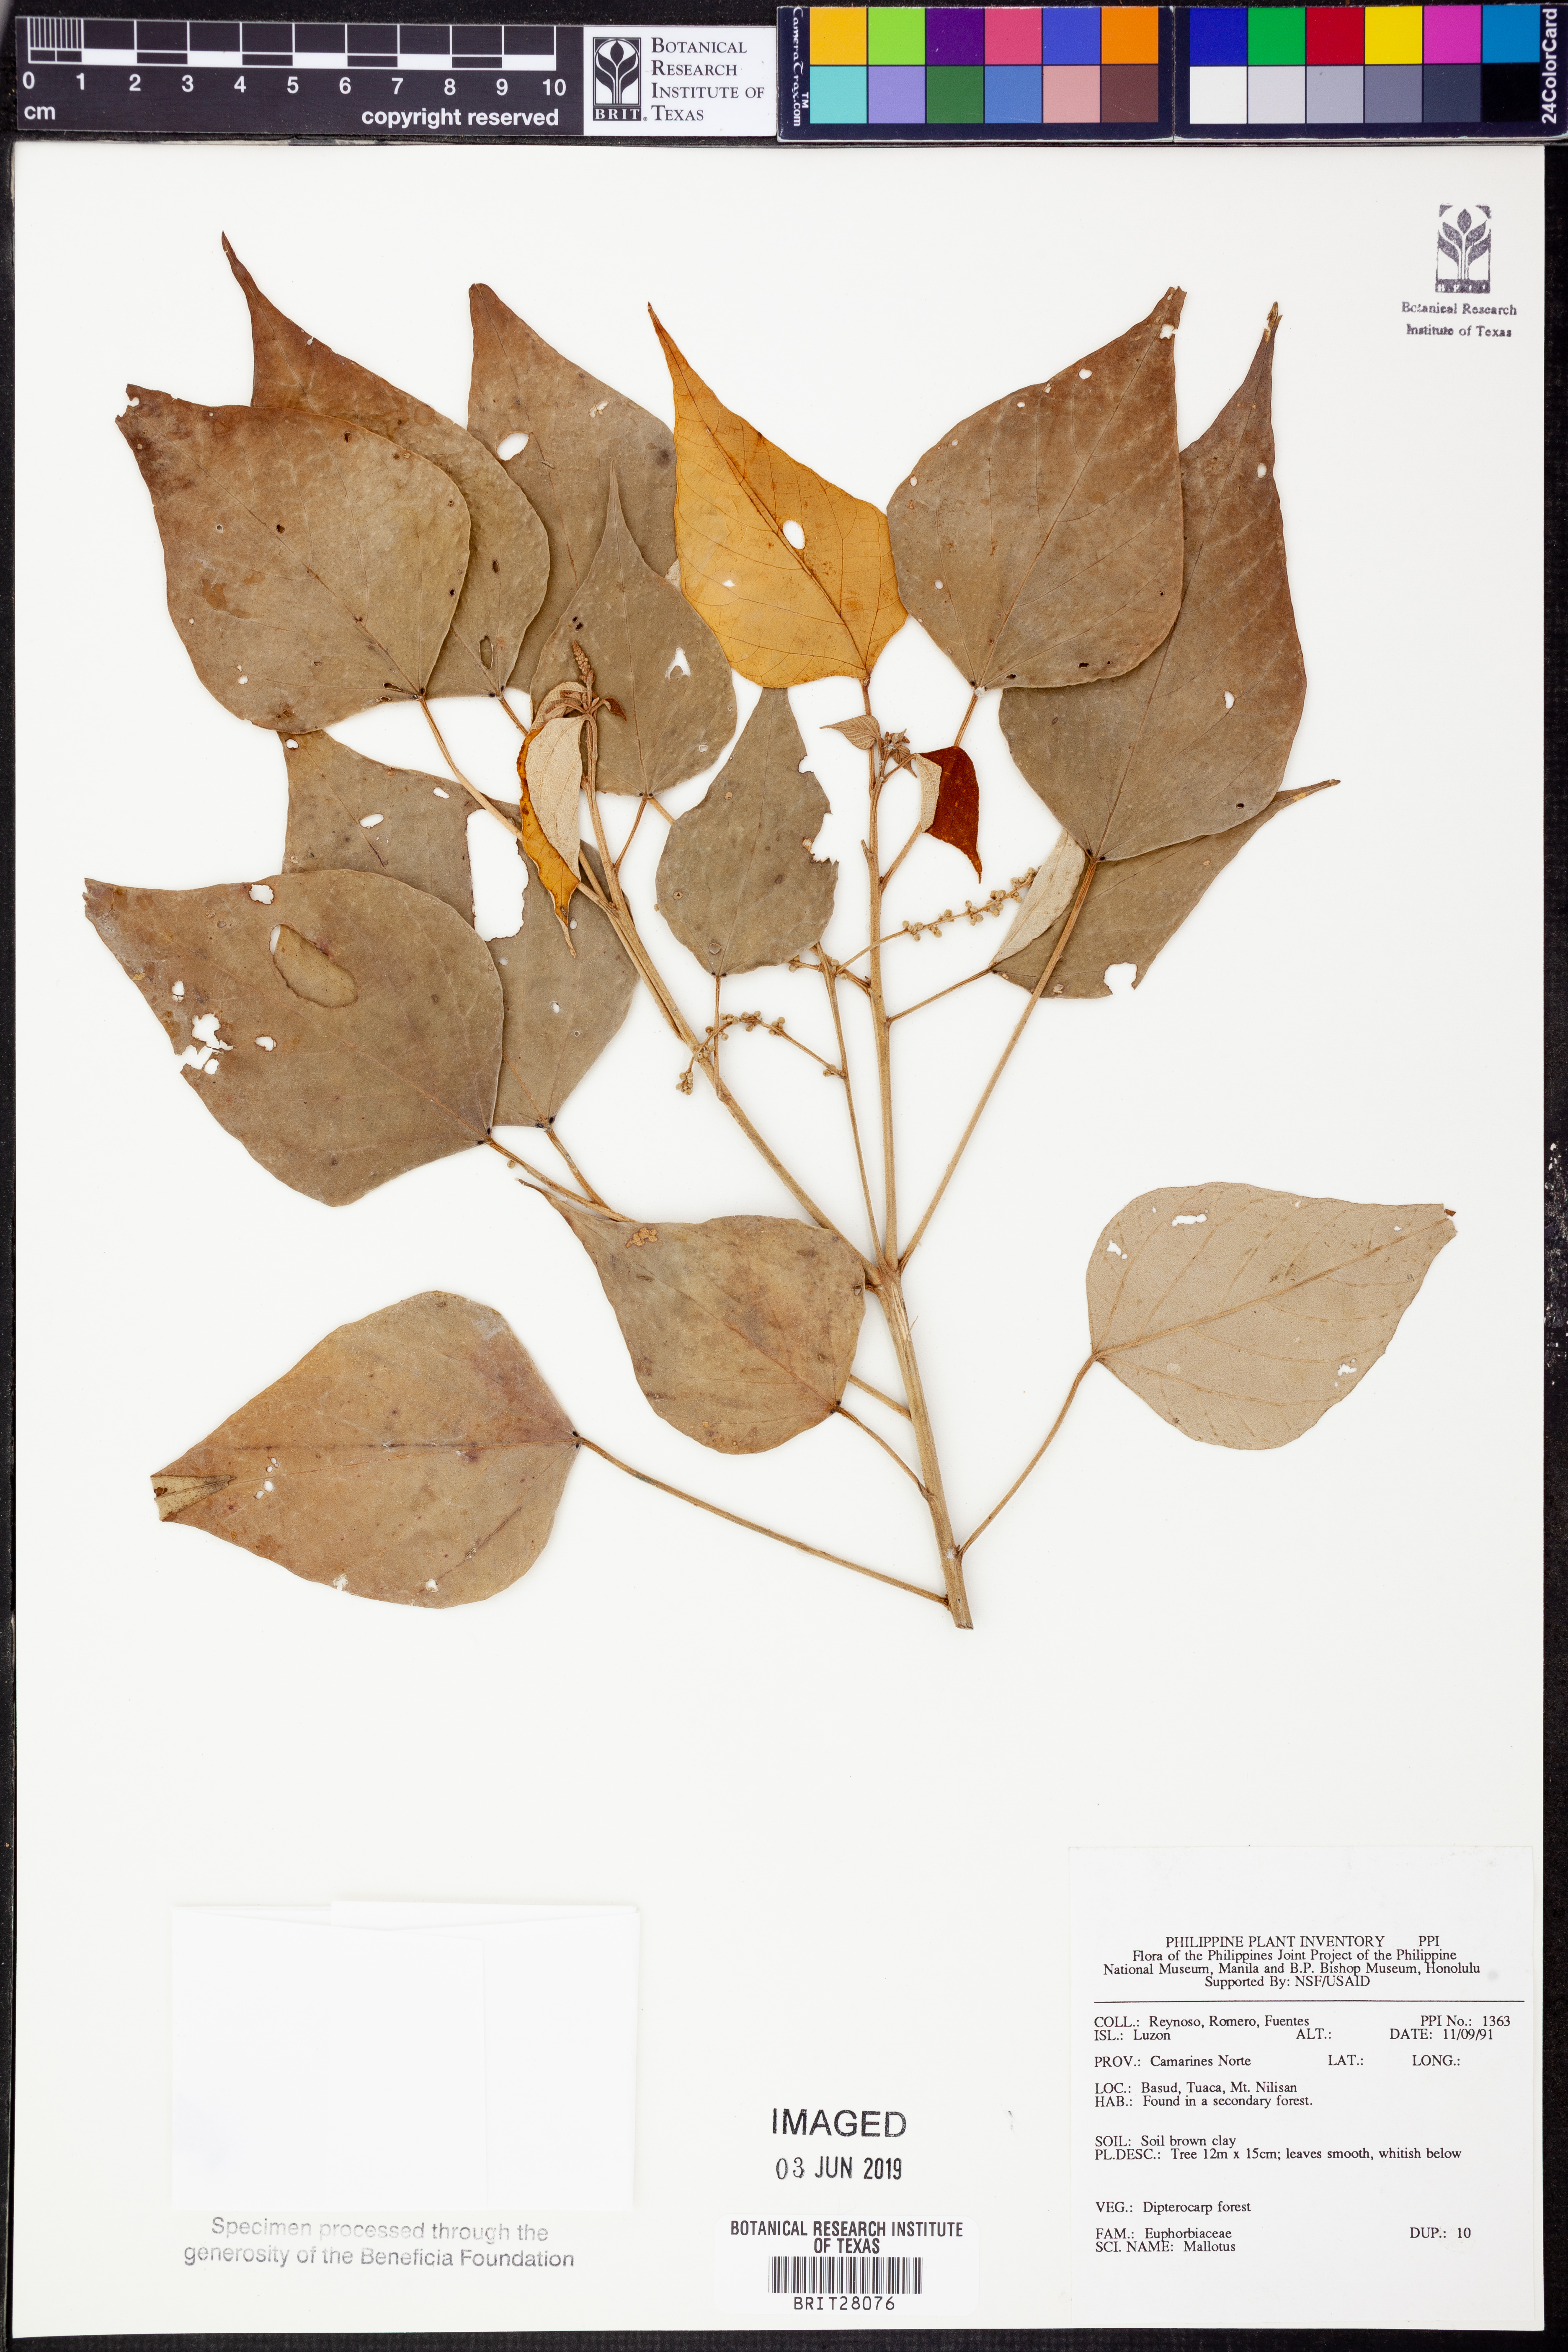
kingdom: Plantae
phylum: Tracheophyta
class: Magnoliopsida
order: Malpighiales
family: Euphorbiaceae
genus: Mallotus
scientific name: Mallotus
